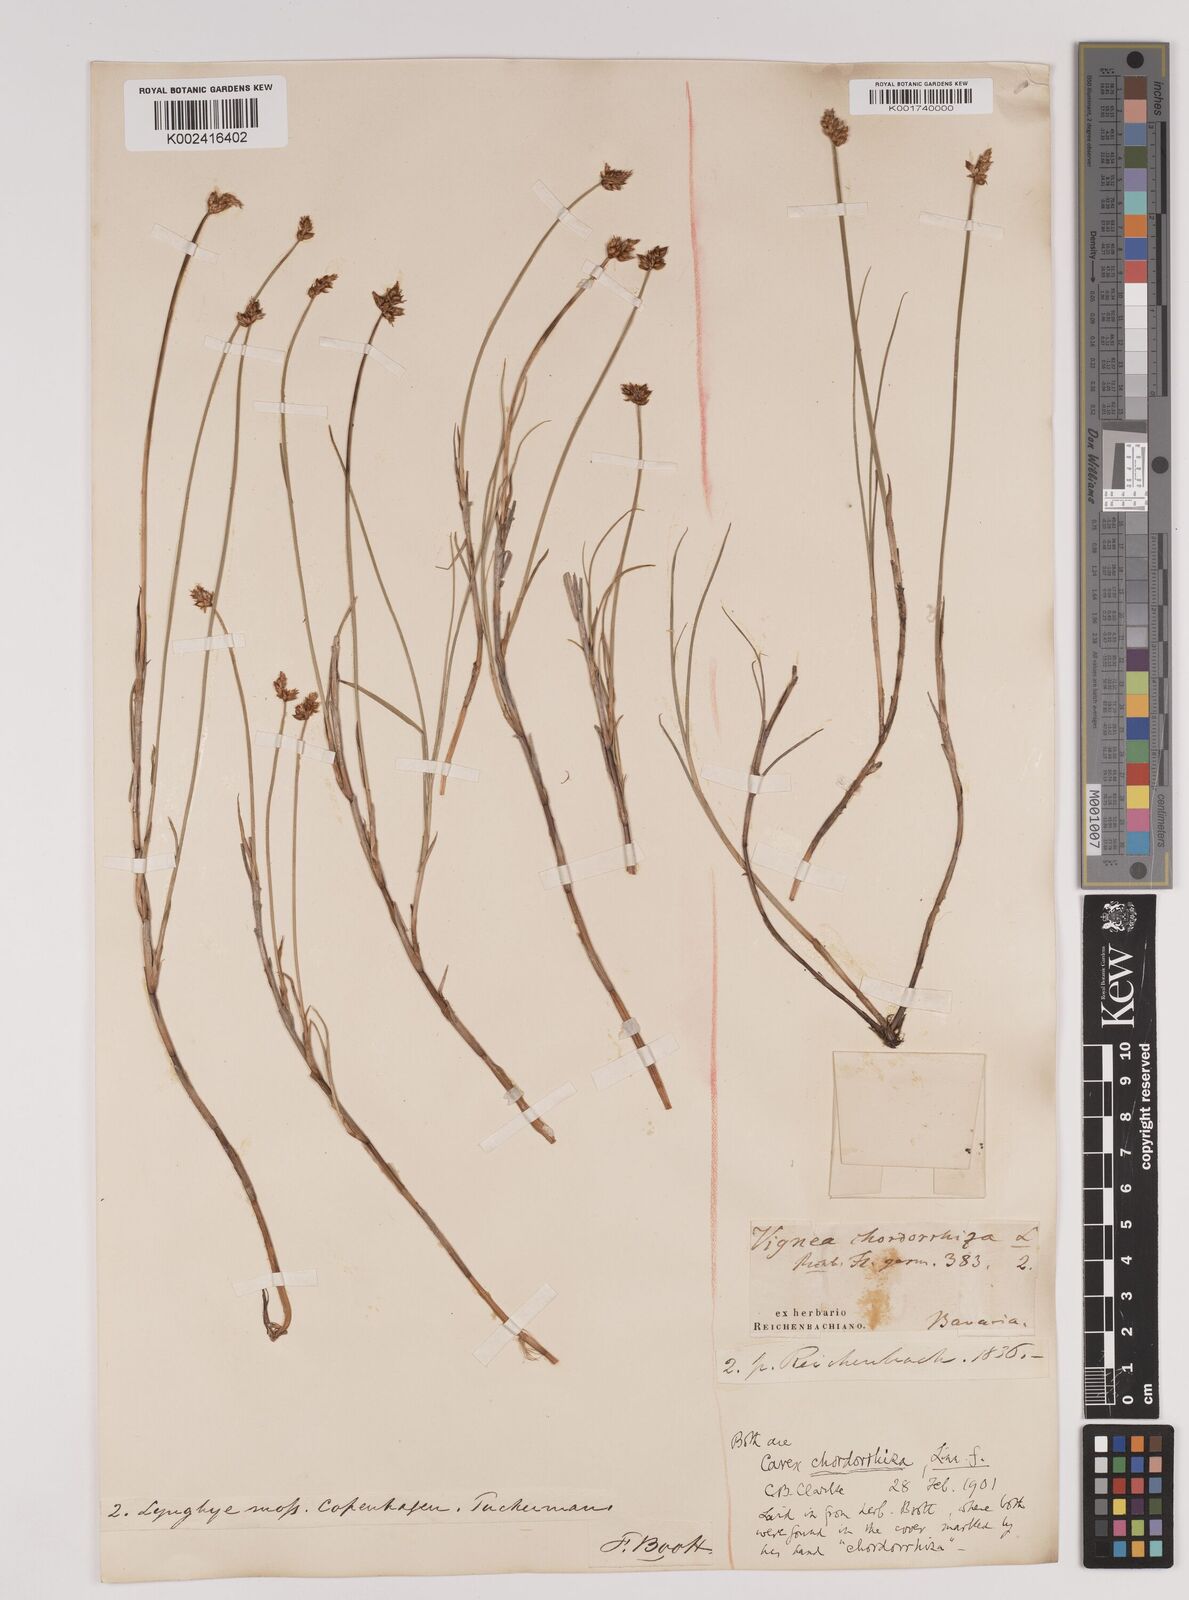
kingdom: Plantae
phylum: Tracheophyta
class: Liliopsida
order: Poales
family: Cyperaceae
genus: Carex
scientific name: Carex chordorrhiza
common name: String sedge
